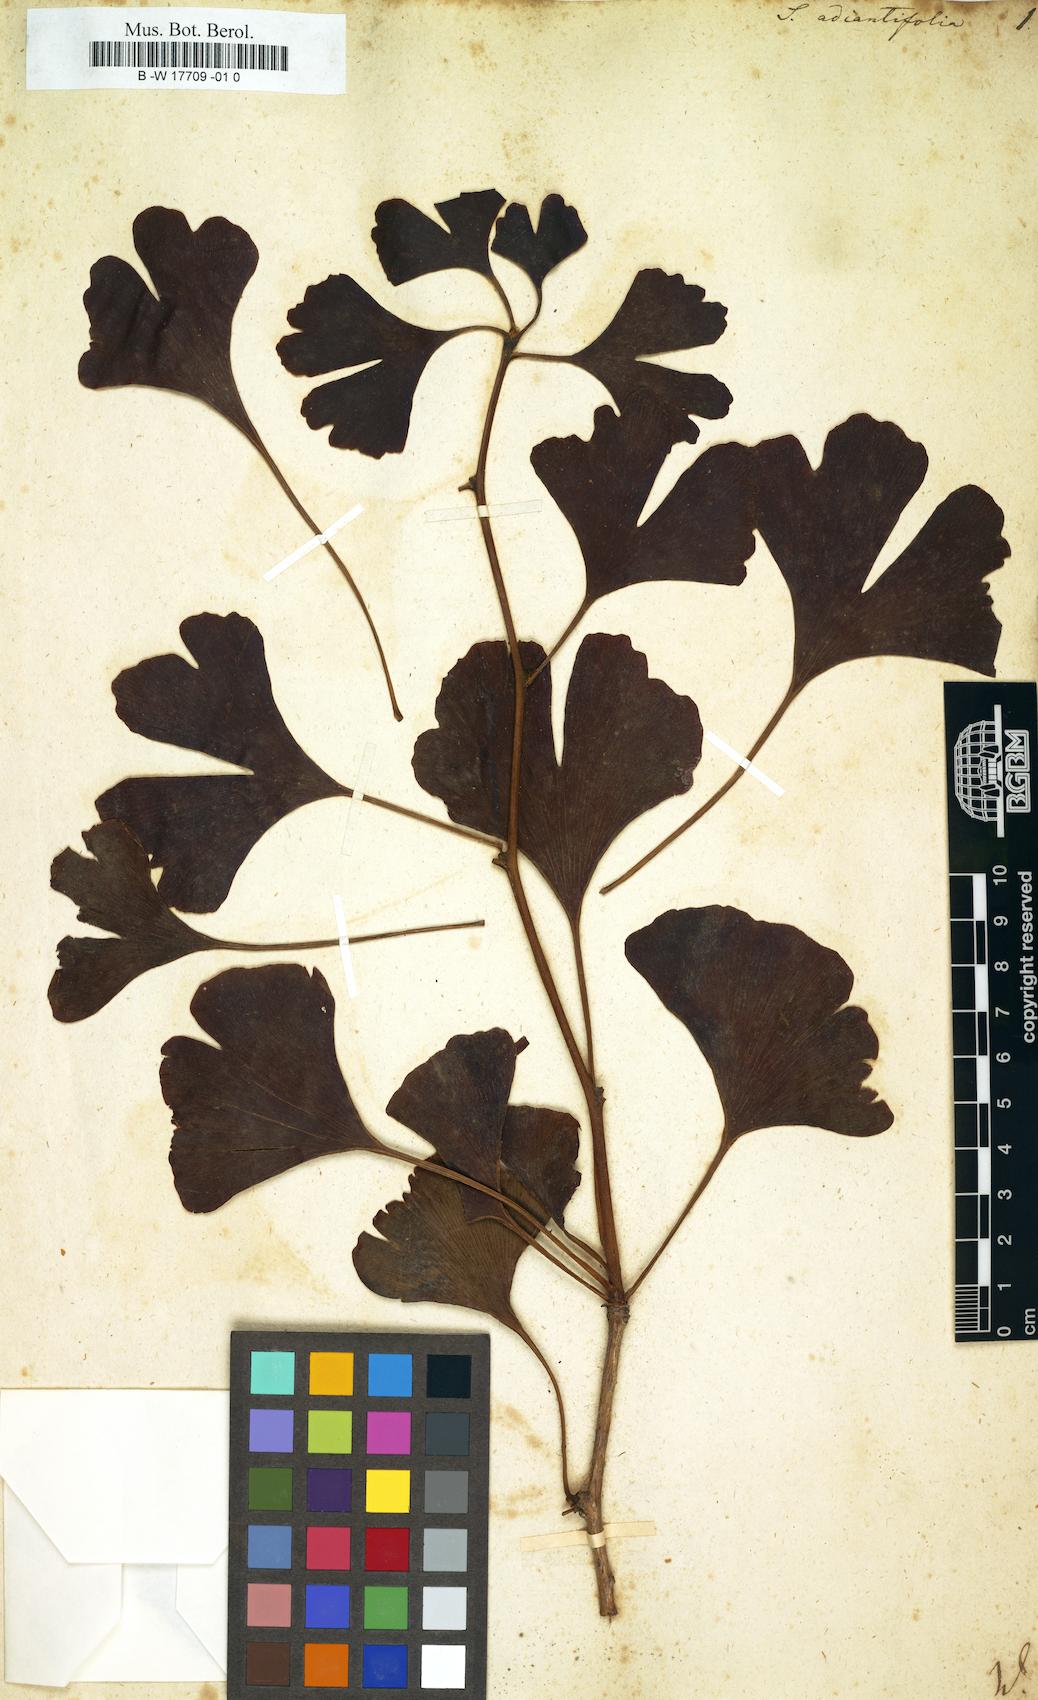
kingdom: Plantae
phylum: Tracheophyta
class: Ginkgoopsida
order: Ginkgoales
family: Ginkgoaceae
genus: Ginkgo
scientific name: Ginkgo biloba
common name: Ginkgo
